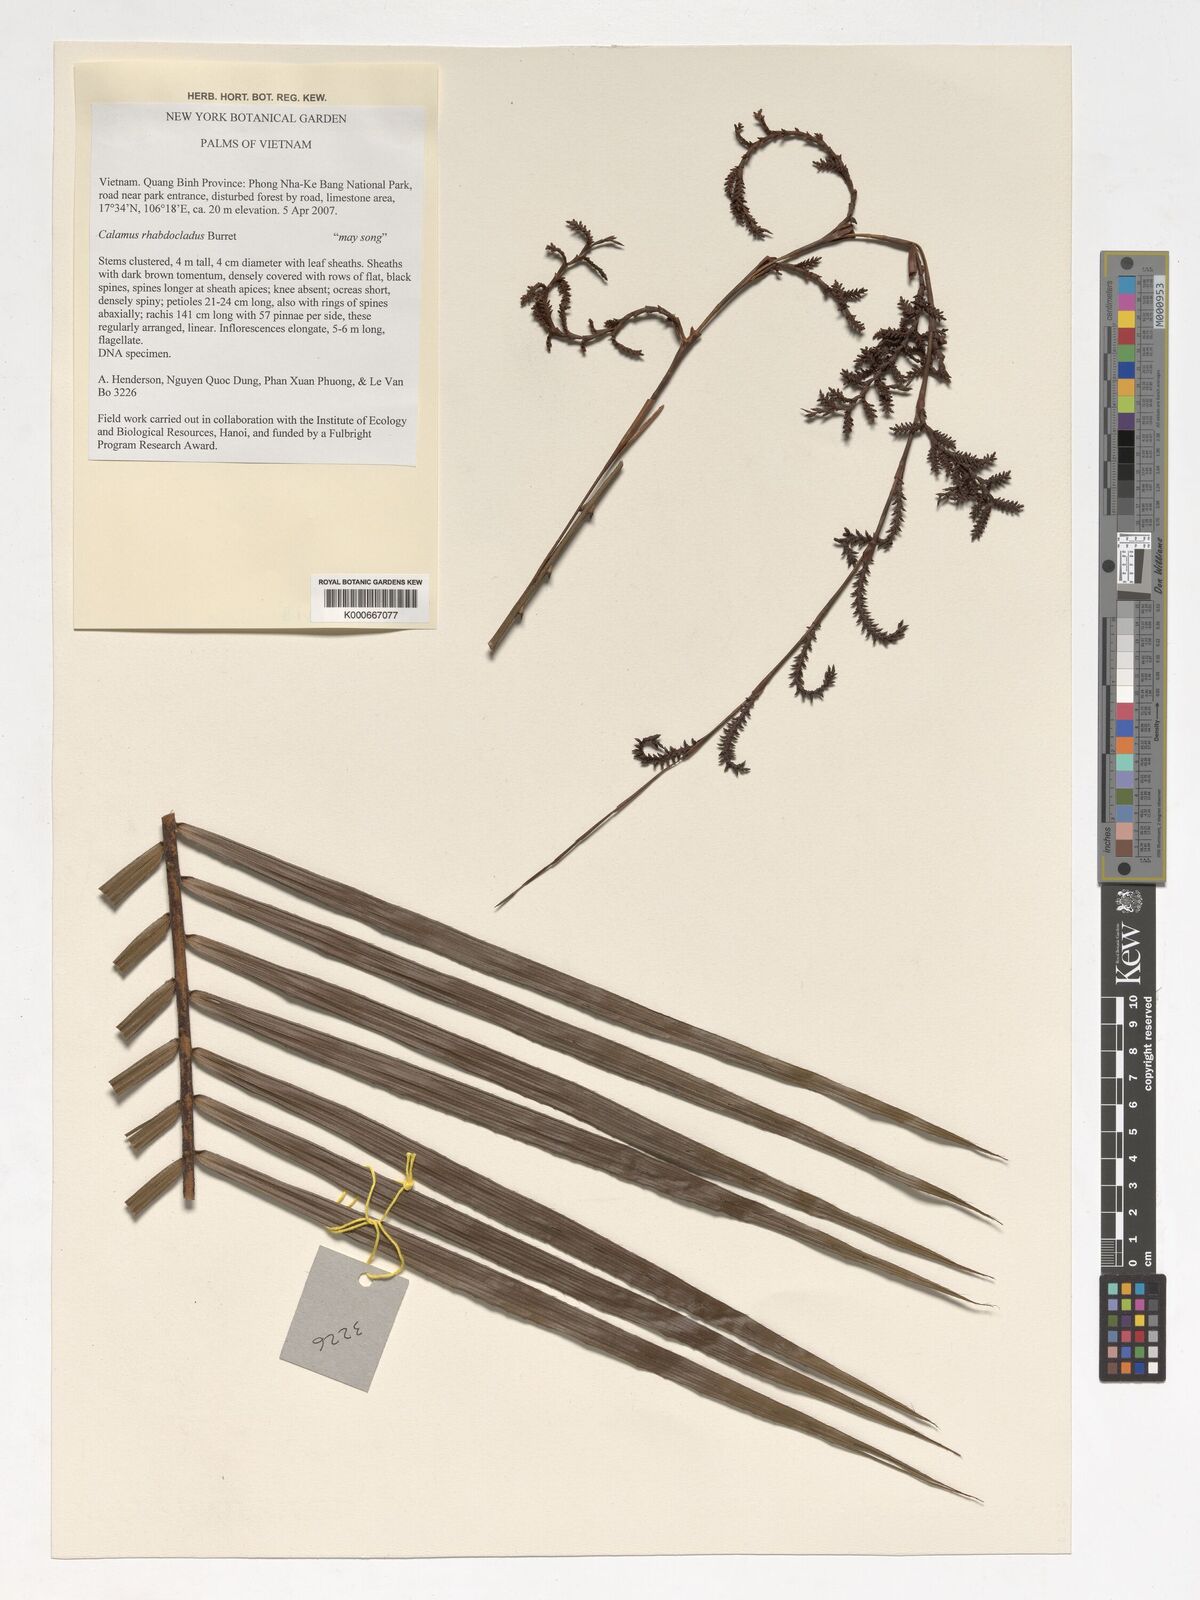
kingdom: Plantae
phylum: Tracheophyta
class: Liliopsida
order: Arecales
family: Arecaceae
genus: Calamus
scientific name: Calamus rhabdocladus
